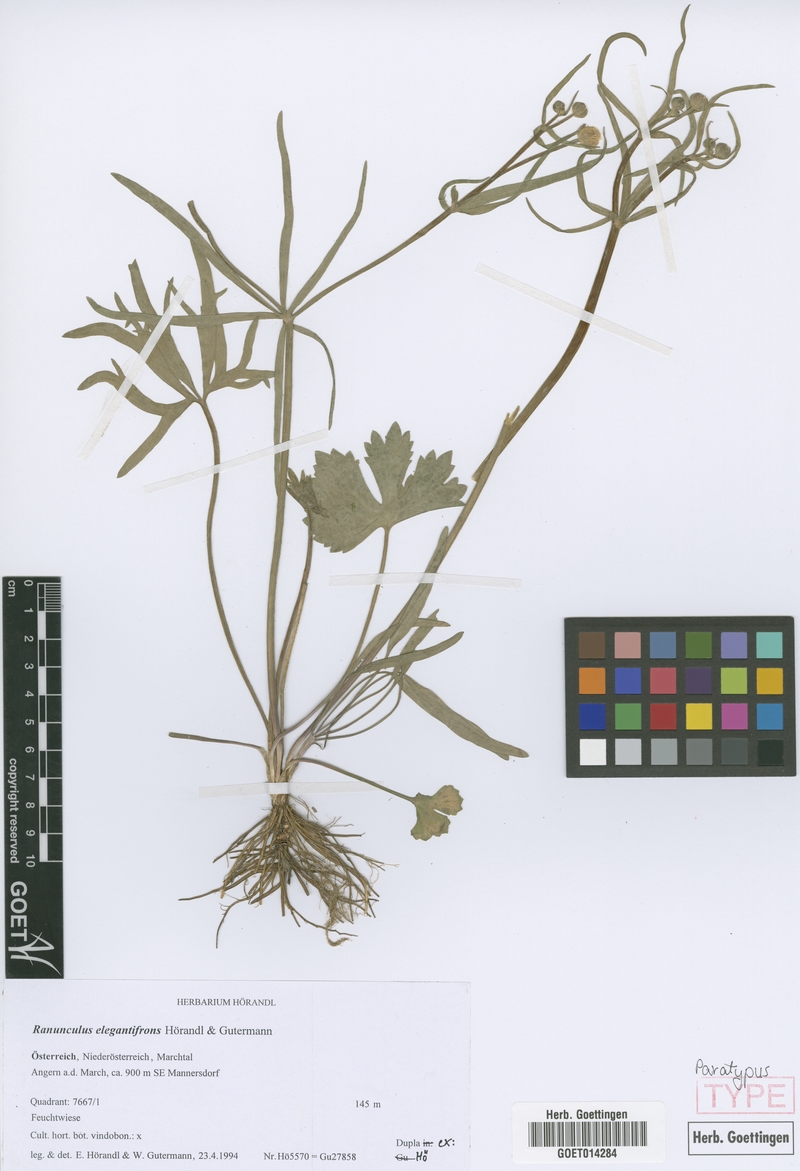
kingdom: Plantae
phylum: Tracheophyta
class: Magnoliopsida
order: Ranunculales
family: Ranunculaceae
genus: Ranunculus
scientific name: Ranunculus elegantifrons
